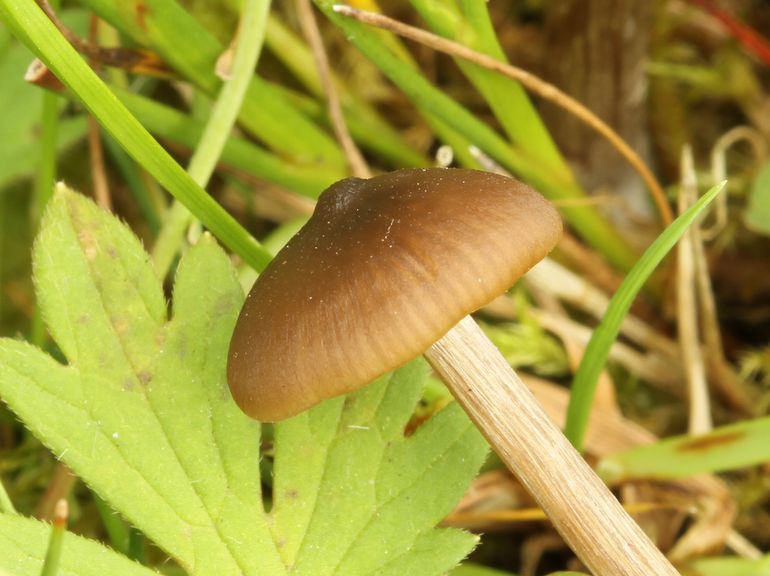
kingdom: Fungi
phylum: Basidiomycota
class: Agaricomycetes
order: Agaricales
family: Entolomataceae
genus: Entoloma
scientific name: Entoloma sericeum
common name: silkeglinsende rødblad
